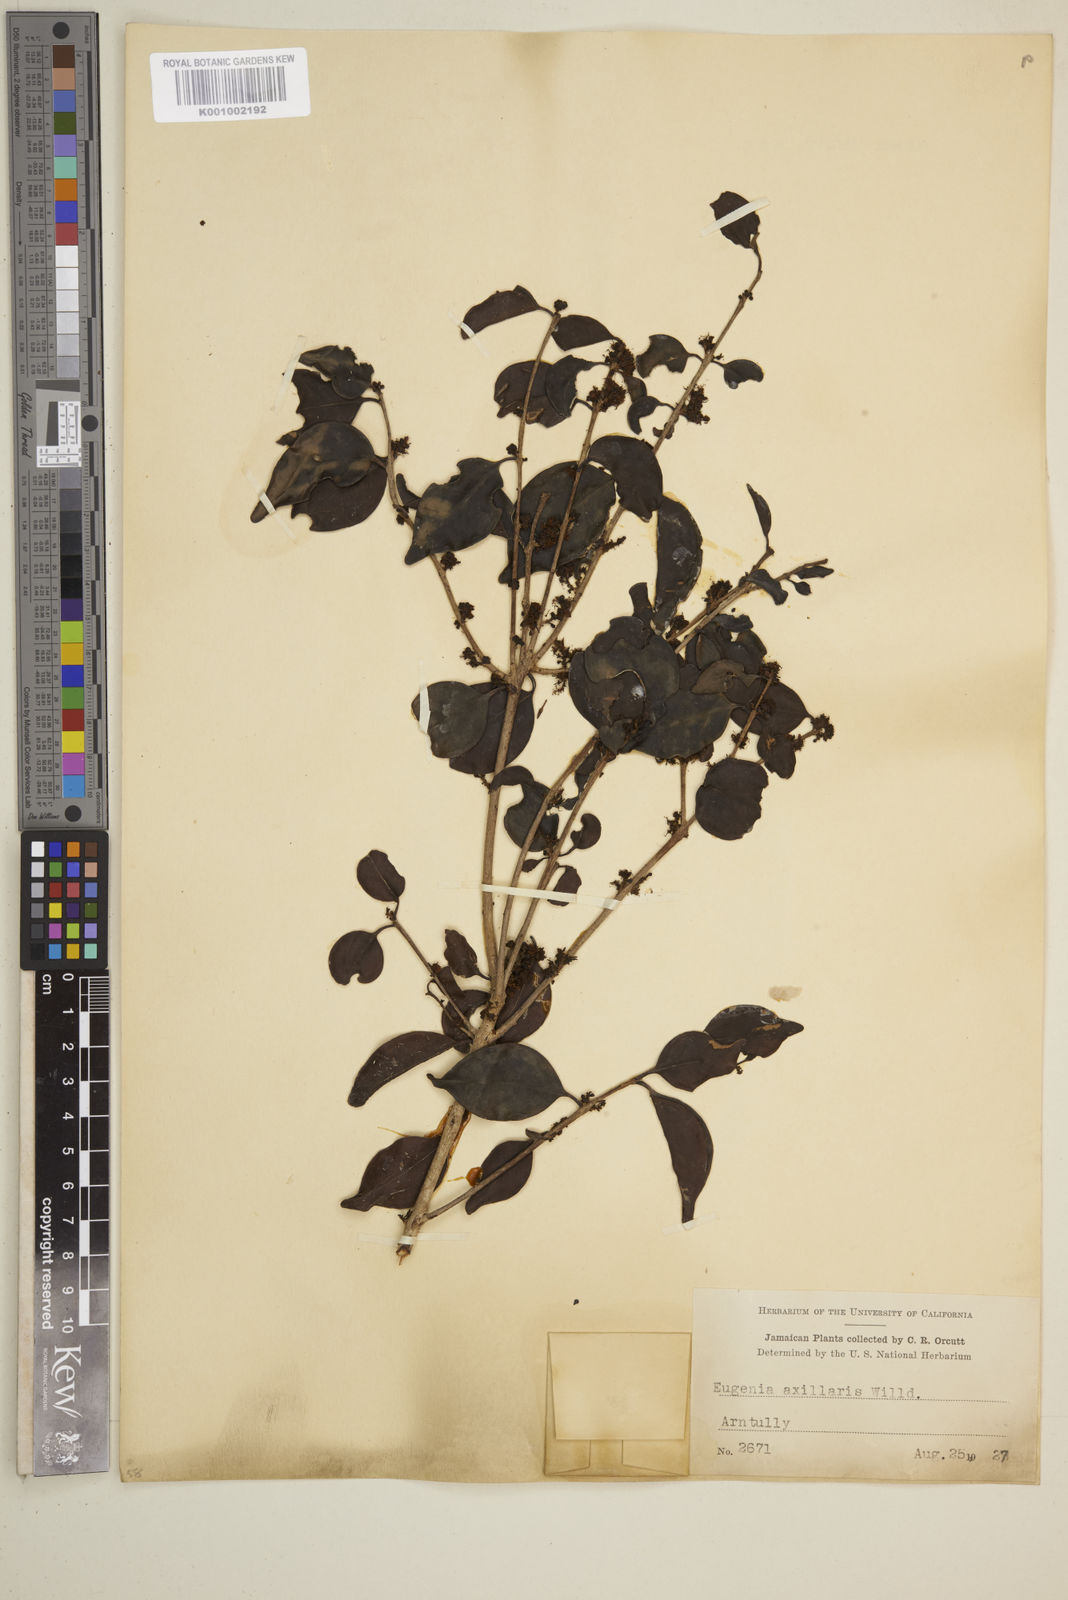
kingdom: Plantae
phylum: Tracheophyta
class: Magnoliopsida
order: Myrtales
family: Myrtaceae
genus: Eugenia
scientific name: Eugenia axillaris
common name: Choaky berry
